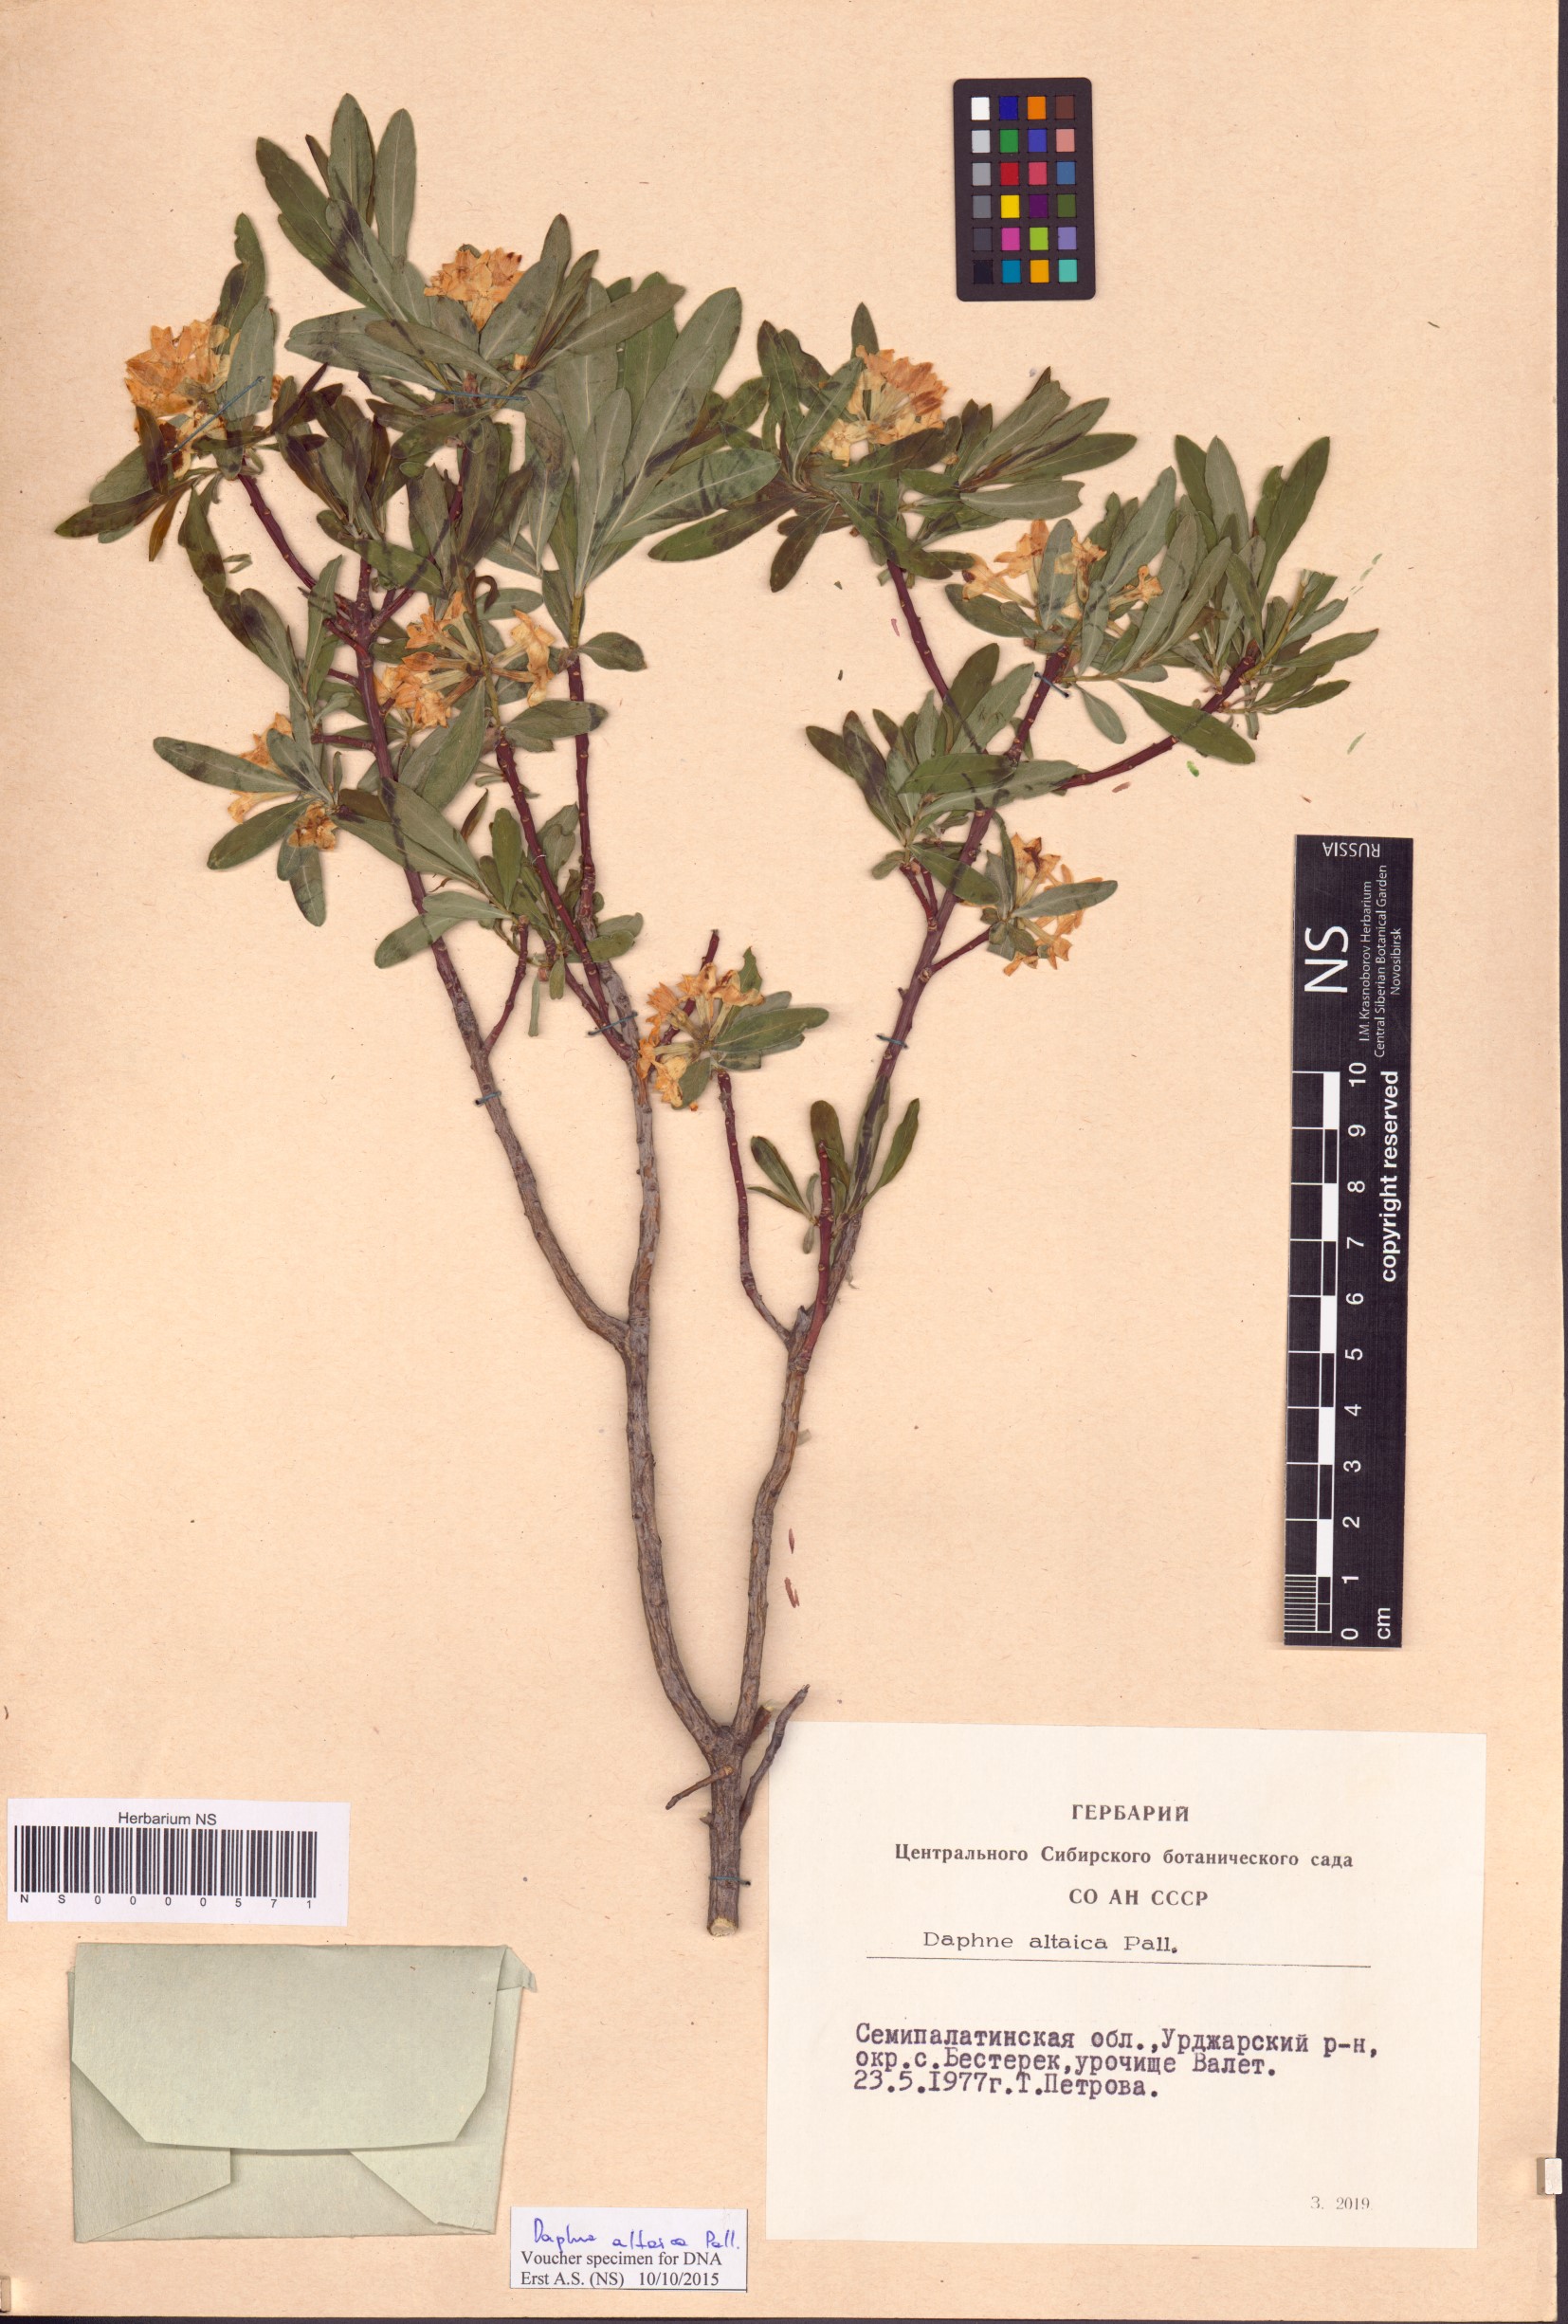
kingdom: Plantae
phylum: Tracheophyta
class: Magnoliopsida
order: Malvales
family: Thymelaeaceae
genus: Daphne
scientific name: Daphne altaica
